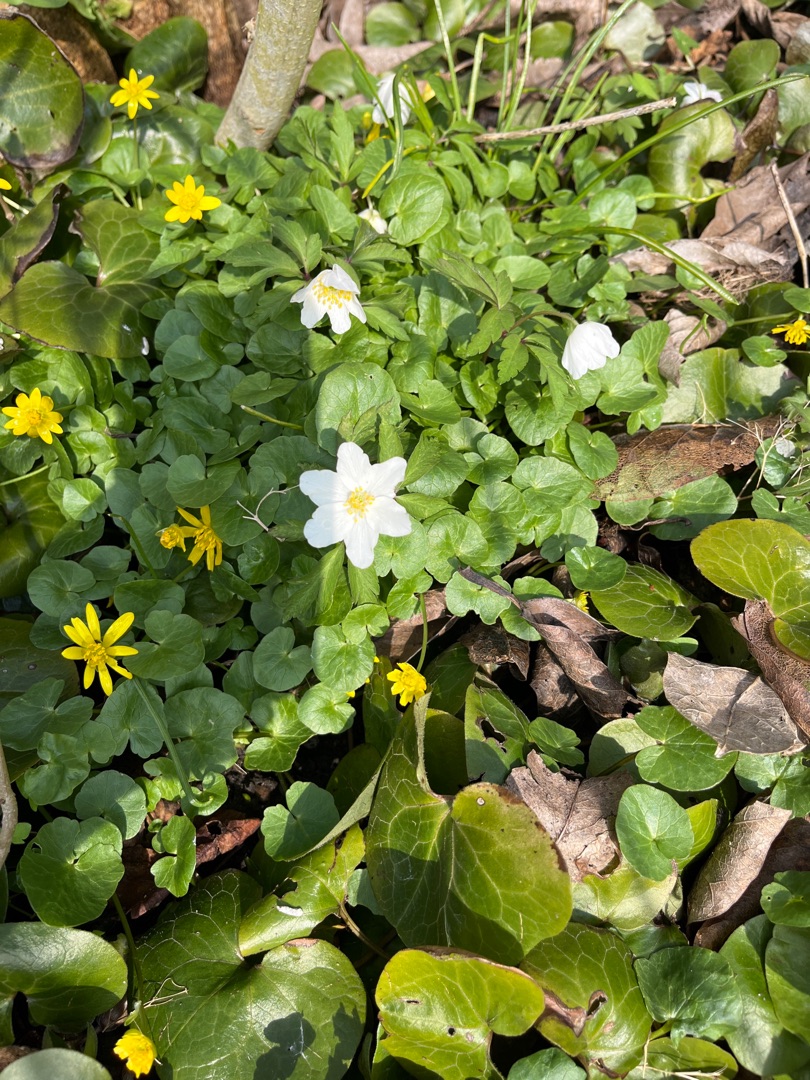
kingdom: Plantae
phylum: Tracheophyta
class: Magnoliopsida
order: Ranunculales
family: Ranunculaceae
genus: Anemone
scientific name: Anemone nemorosa
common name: Hvid anemone
